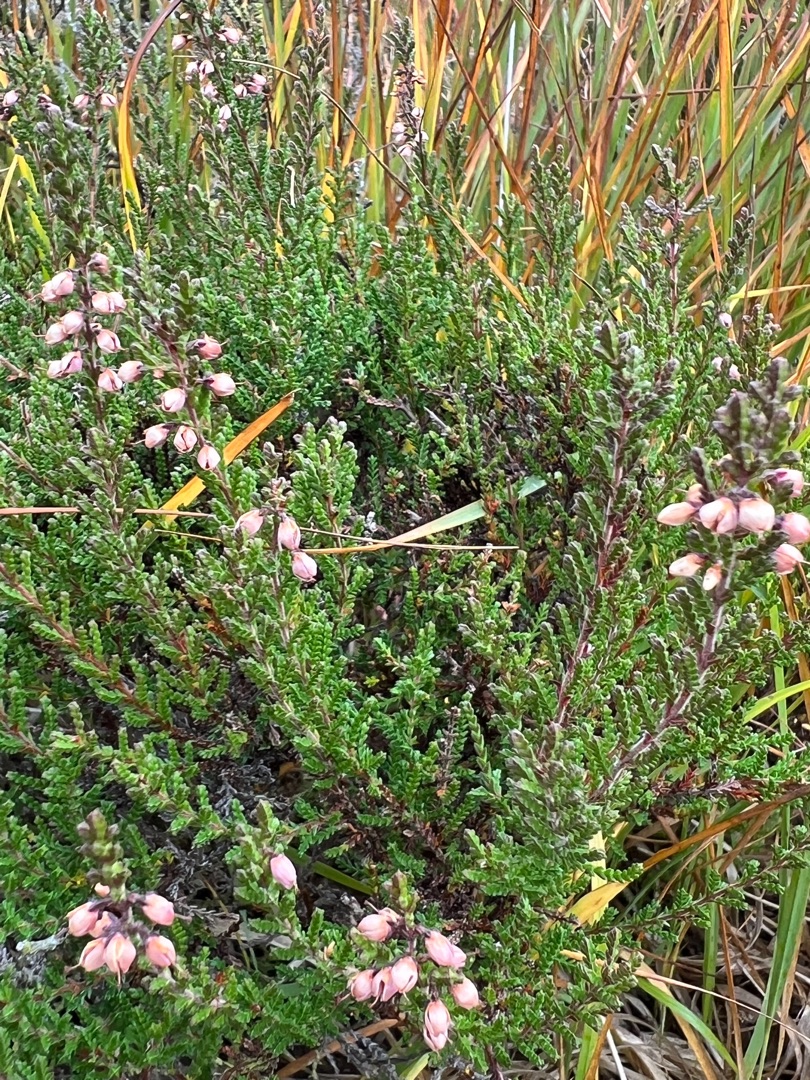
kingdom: Plantae
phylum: Tracheophyta
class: Magnoliopsida
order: Ericales
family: Ericaceae
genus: Calluna
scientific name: Calluna vulgaris
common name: Hedelyng
